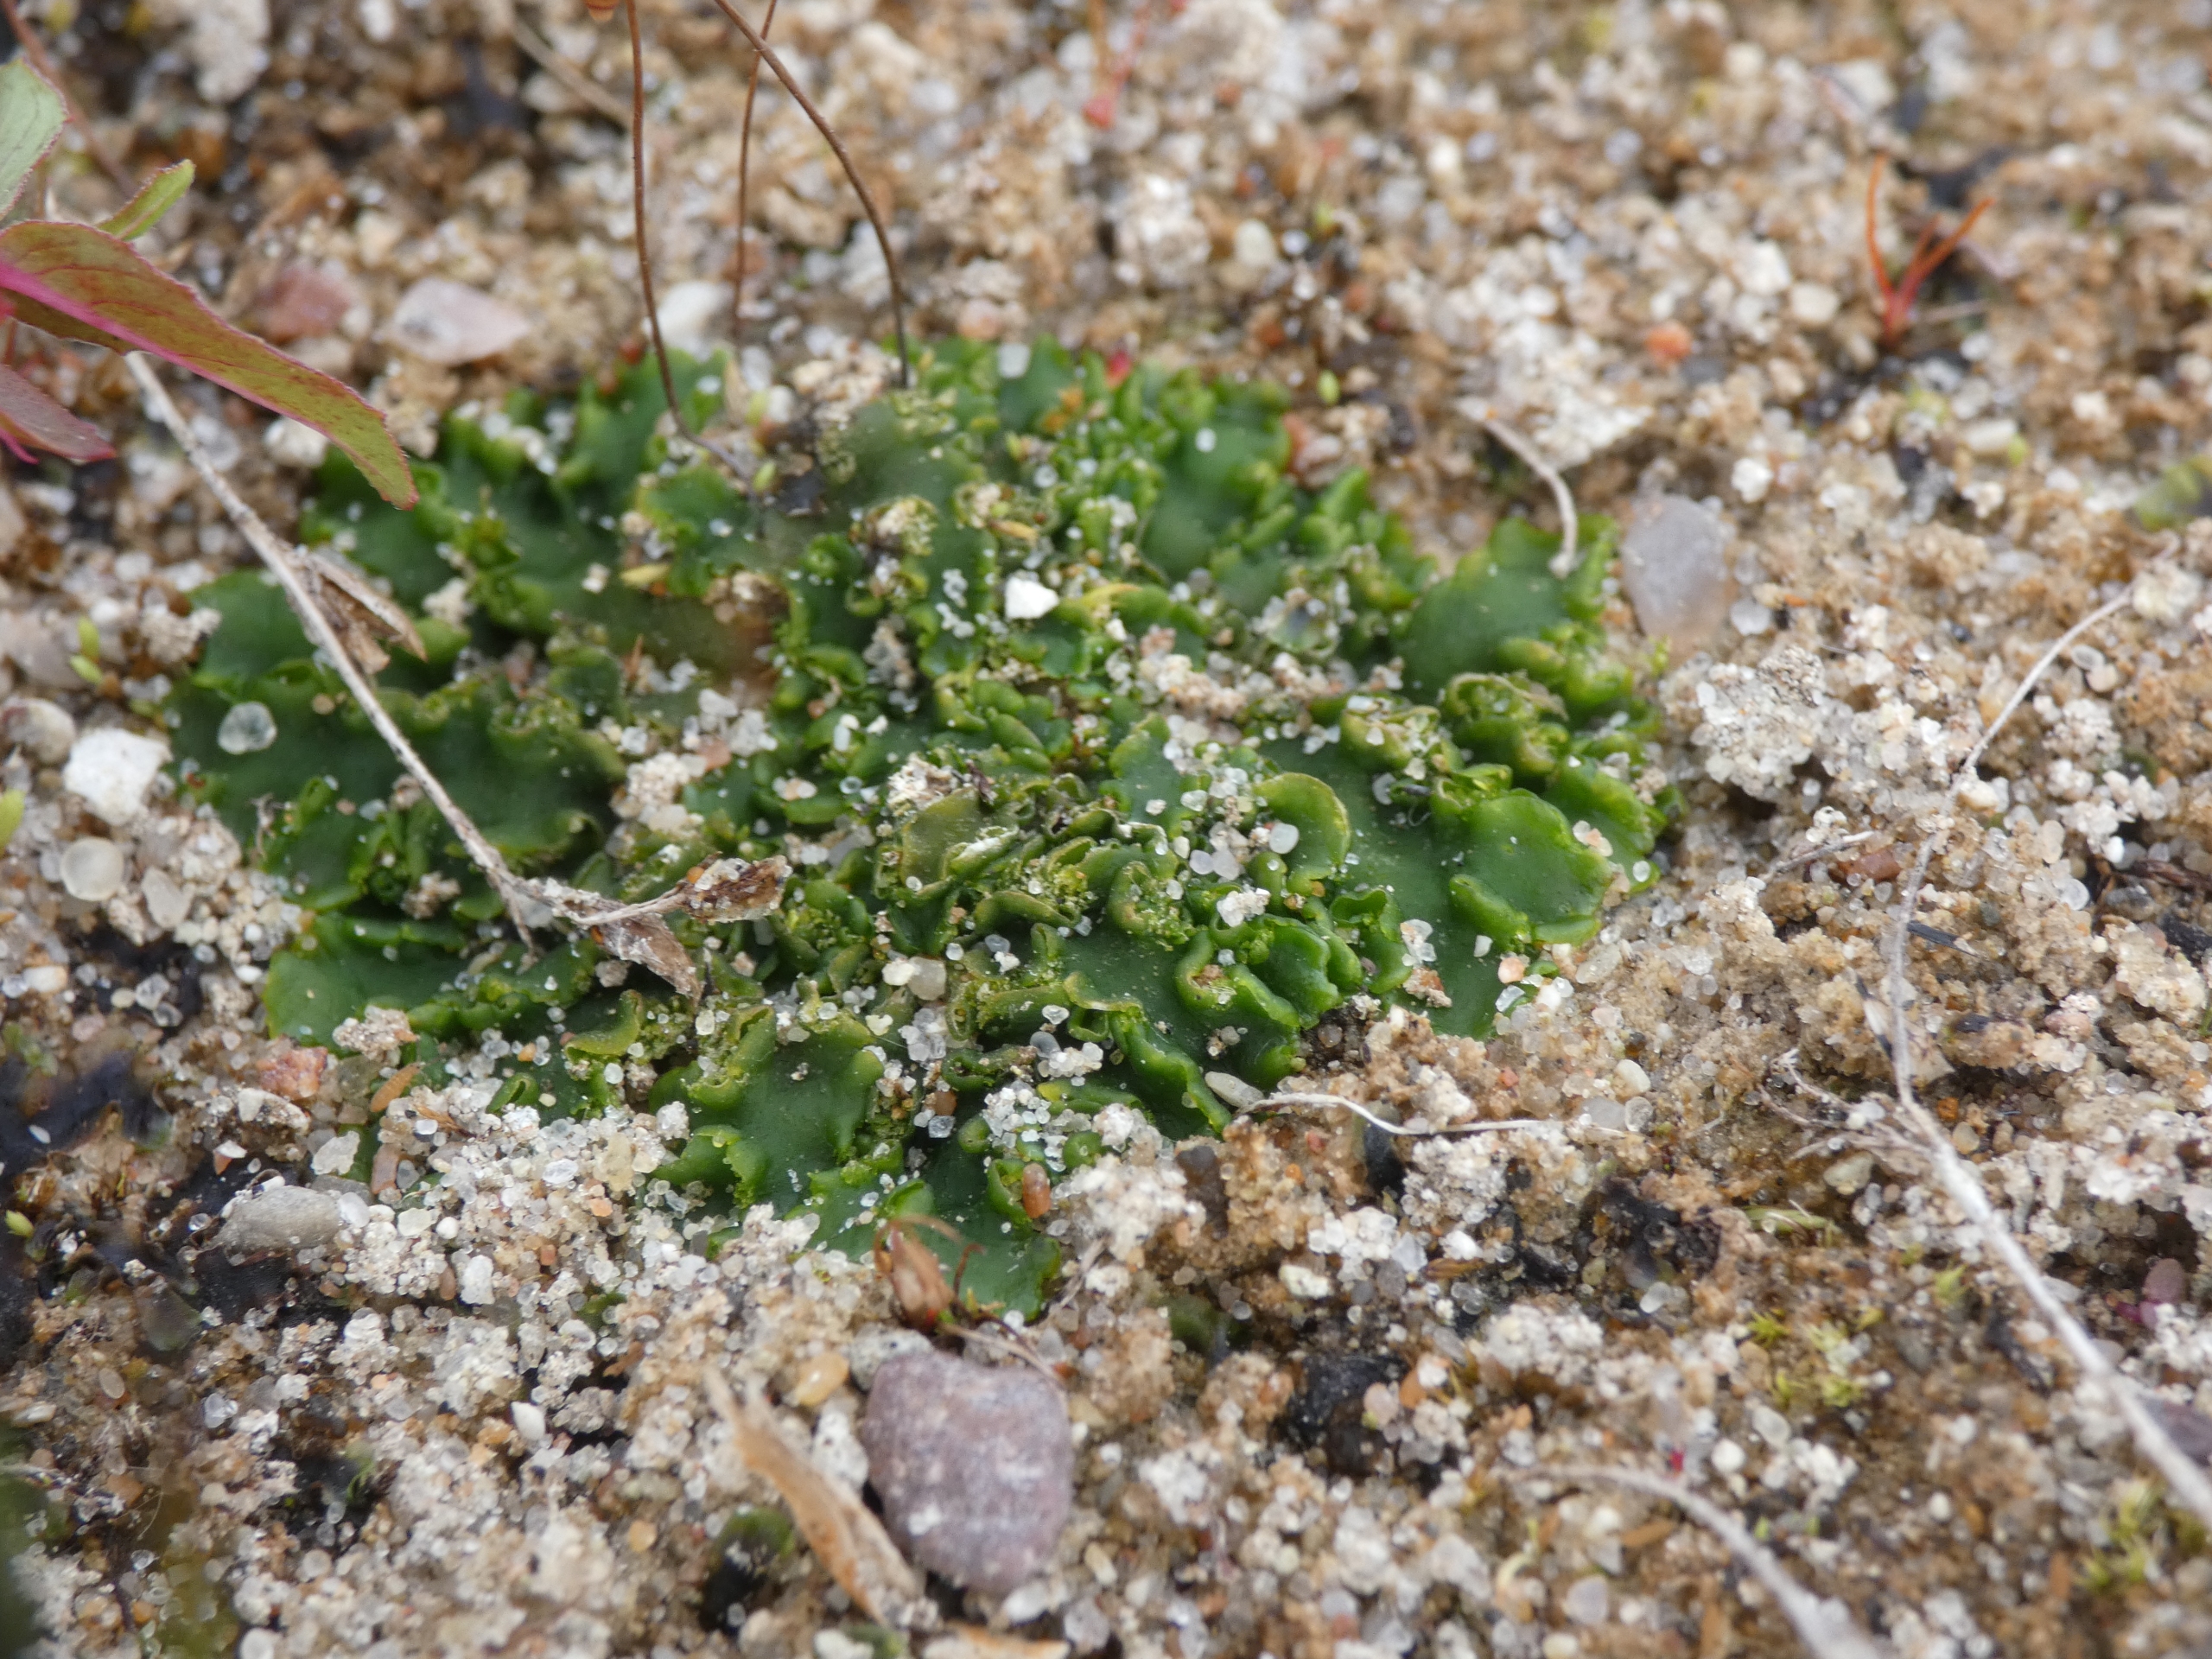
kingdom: Plantae
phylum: Marchantiophyta
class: Jungermanniopsida
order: Metzgeriales
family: Aneuraceae
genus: Aneura
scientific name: Aneura pinguis
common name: Tyk nerveløs
